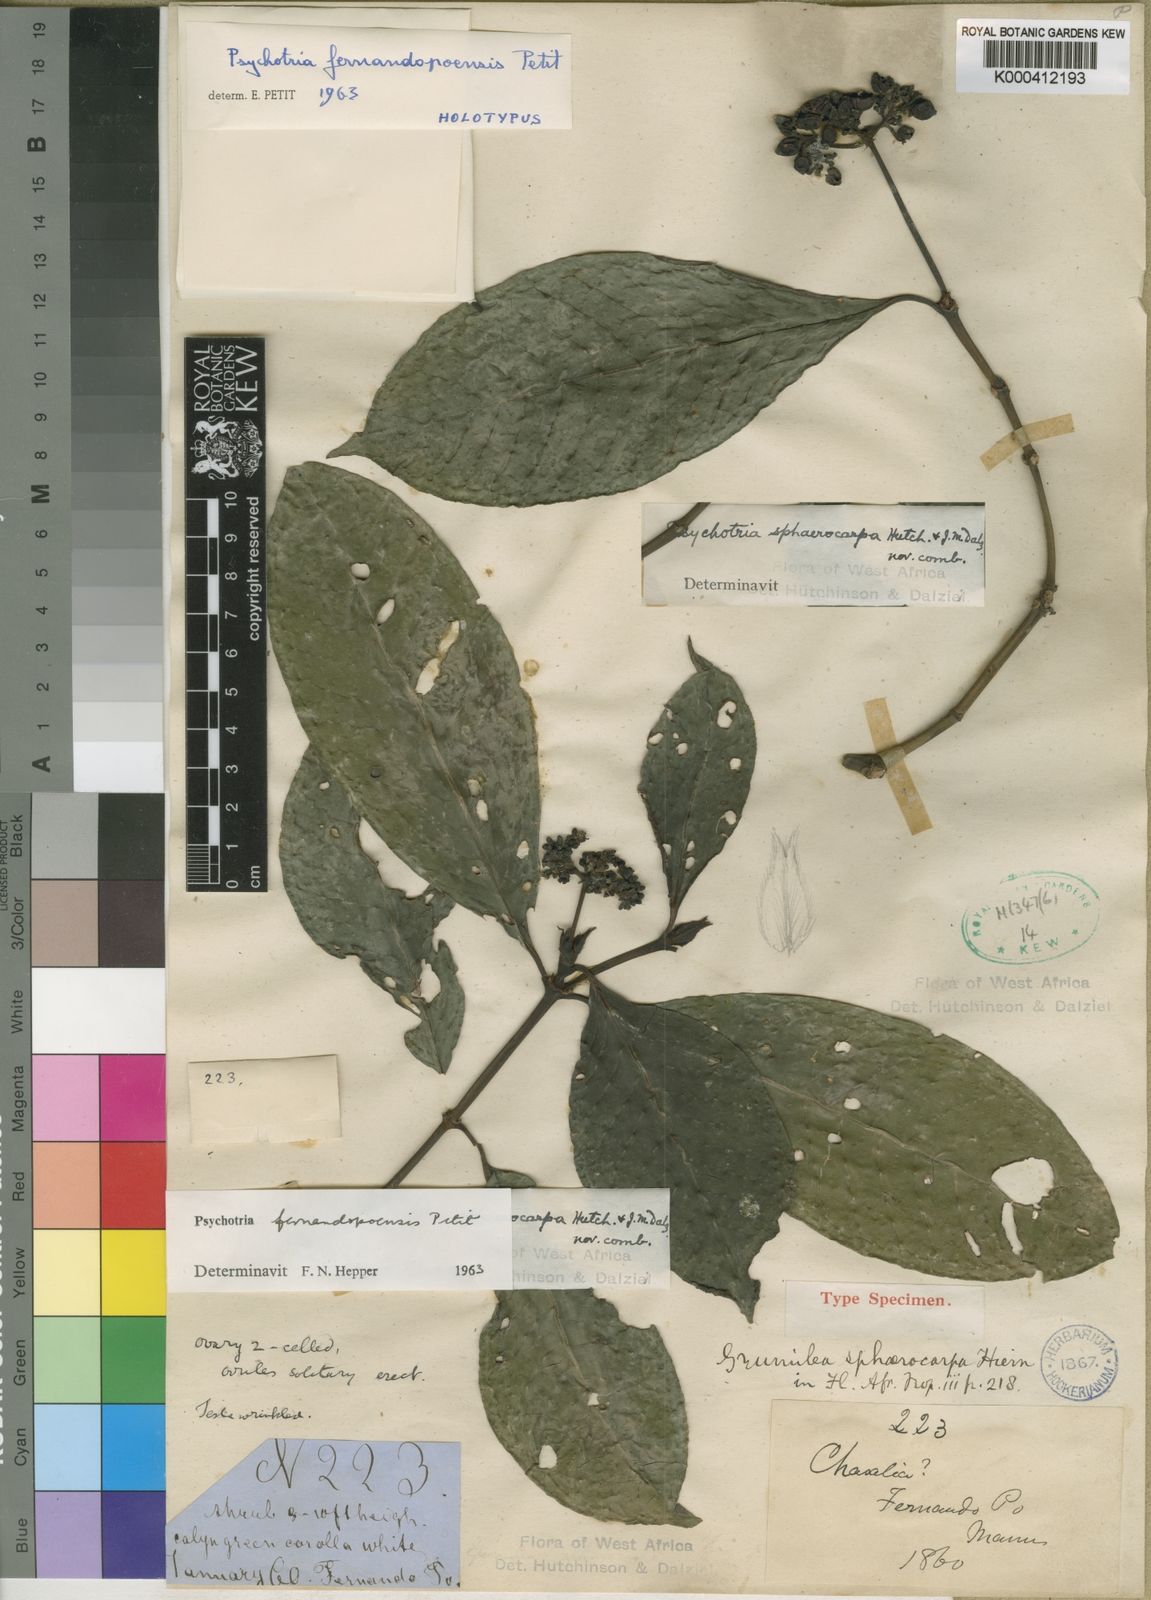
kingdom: Plantae
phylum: Tracheophyta
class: Magnoliopsida
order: Gentianales
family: Rubiaceae
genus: Psychotria
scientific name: Psychotria fernandopoensis
